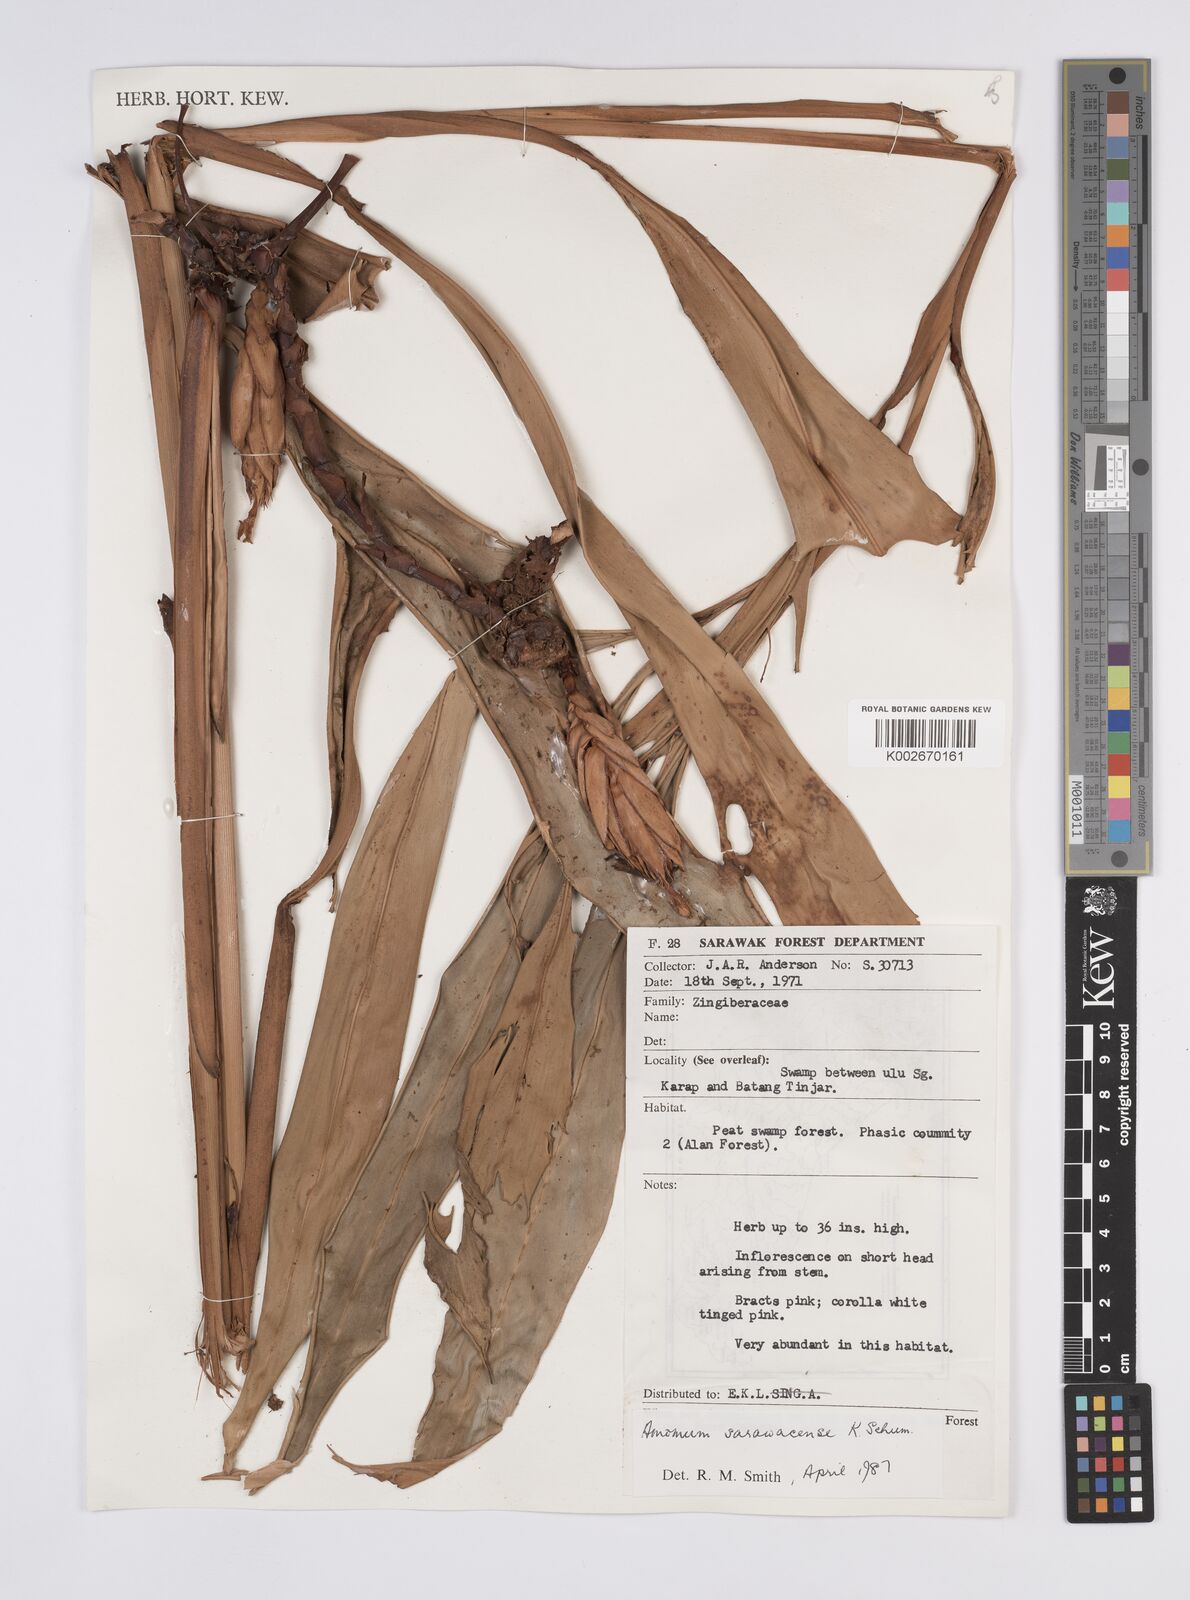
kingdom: Plantae
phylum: Tracheophyta
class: Liliopsida
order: Zingiberales
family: Zingiberaceae
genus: Hornstedtia
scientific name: Hornstedtia conica
